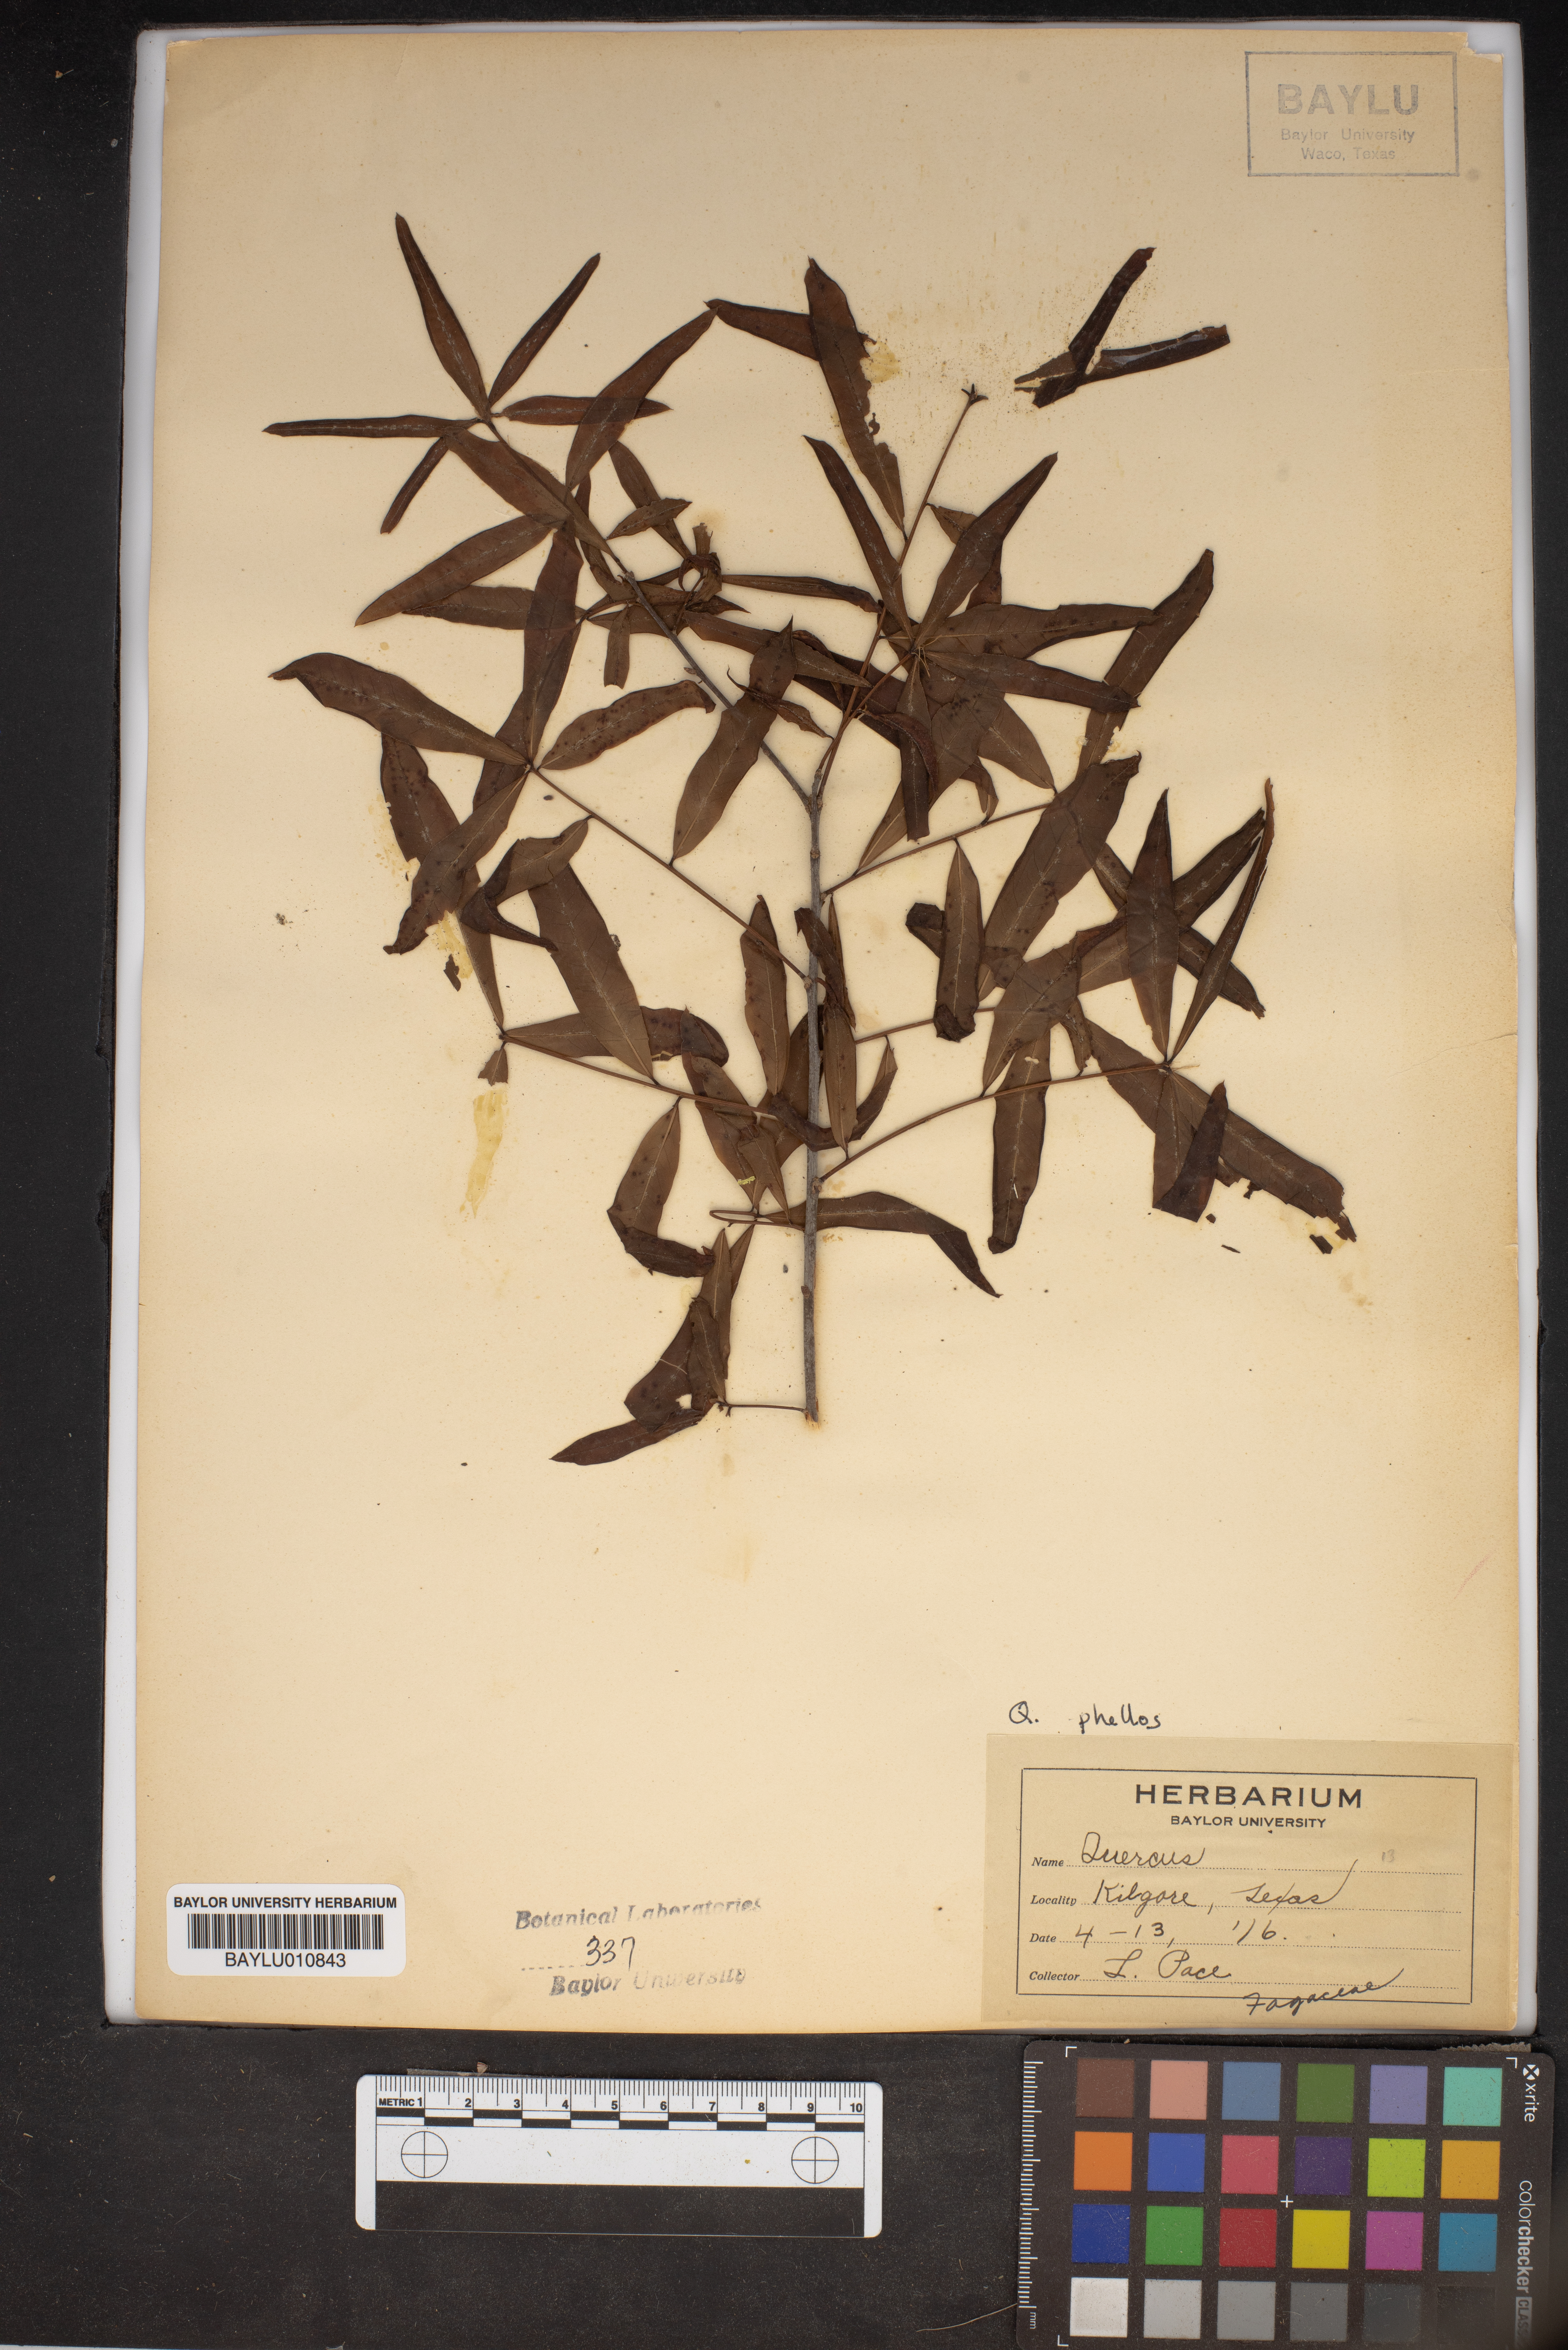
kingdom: Plantae
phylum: Tracheophyta
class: Magnoliopsida
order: Fagales
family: Fagaceae
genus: Quercus
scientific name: Quercus
